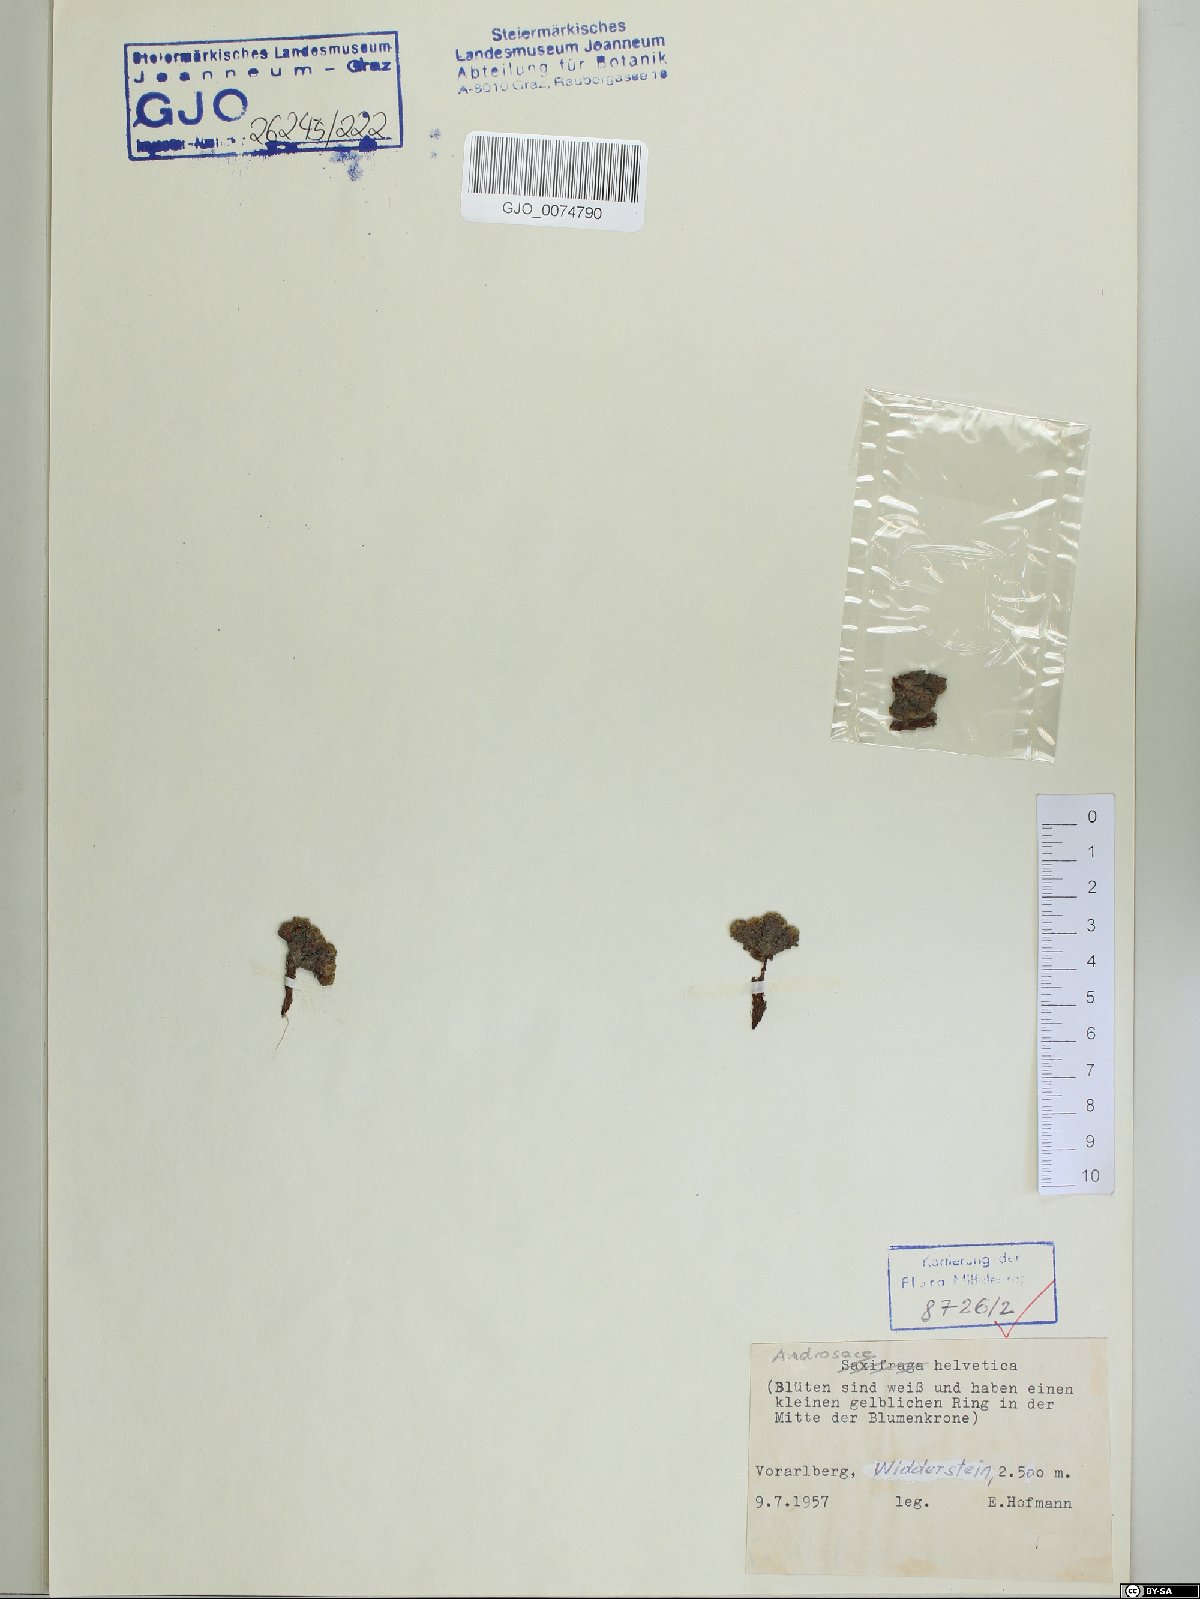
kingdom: Plantae
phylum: Tracheophyta
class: Magnoliopsida
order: Ericales
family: Primulaceae
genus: Androsace
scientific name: Androsace helvetica
